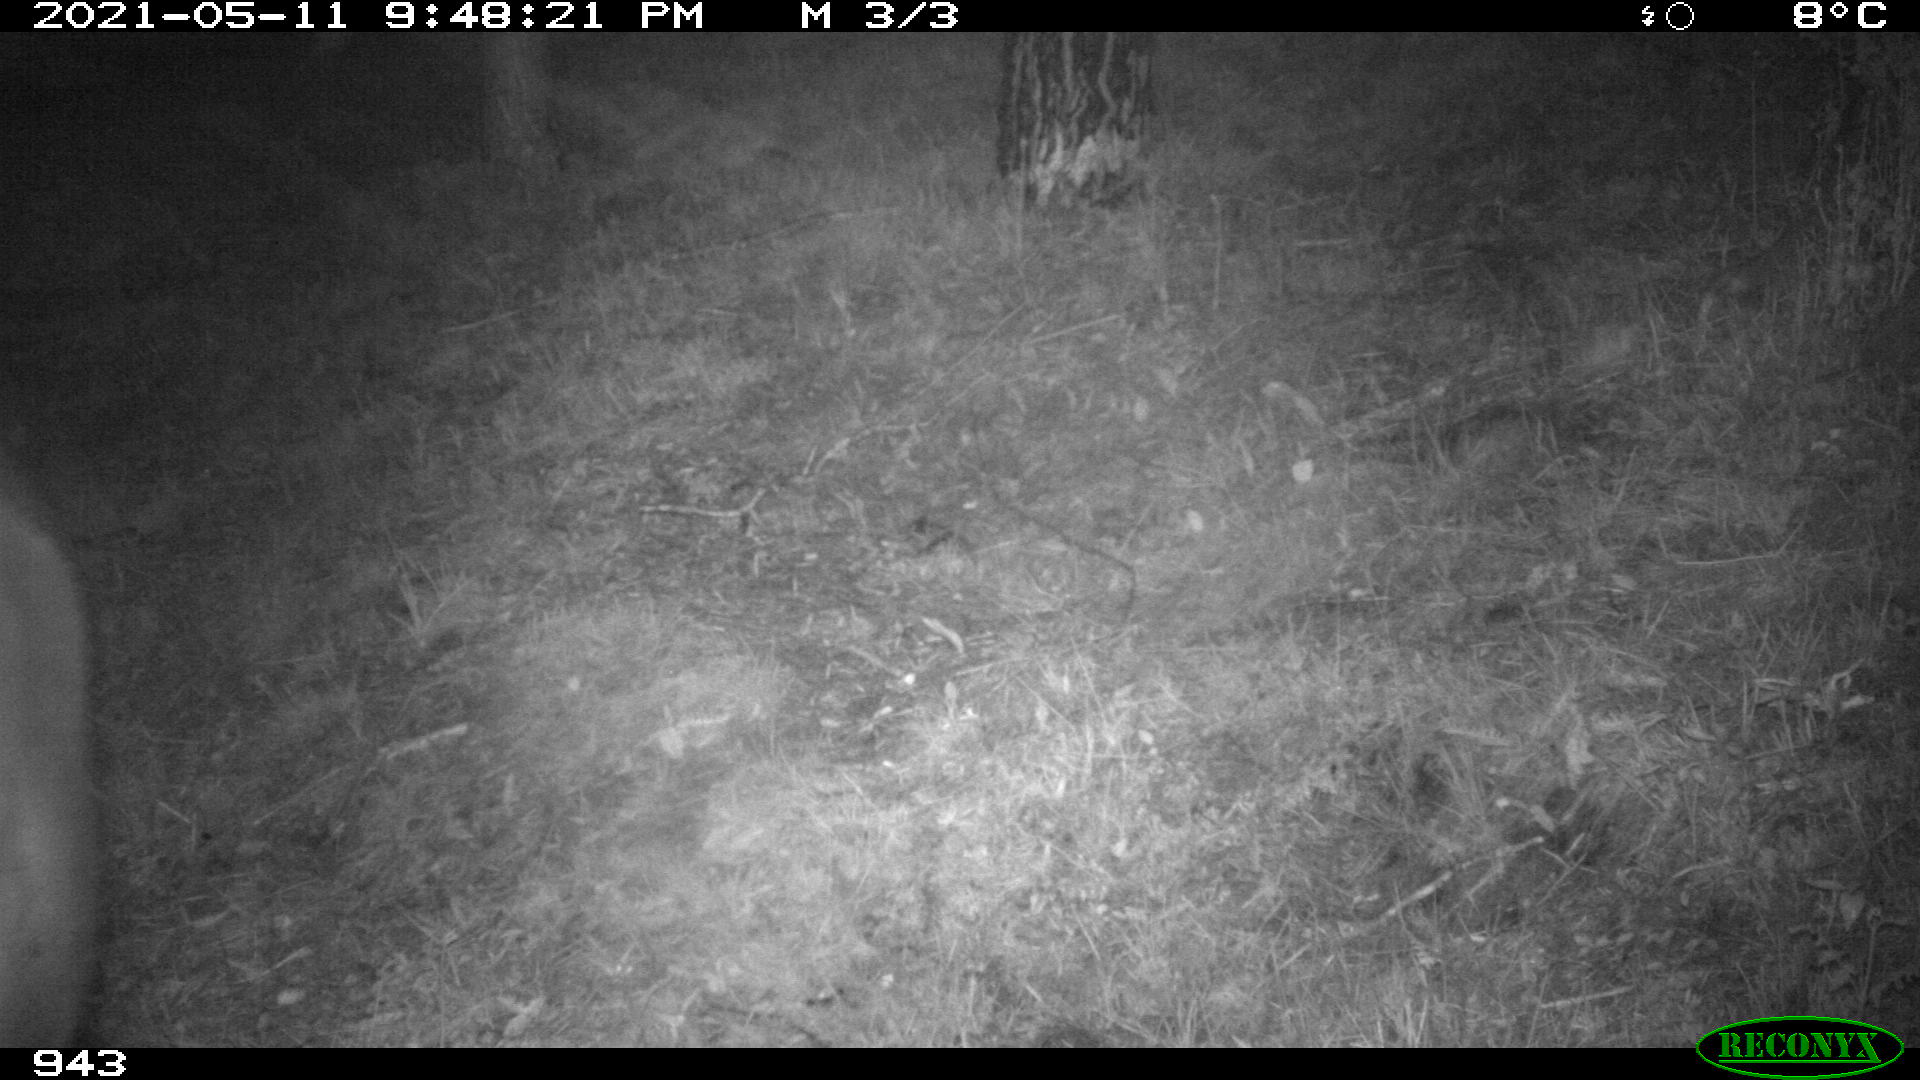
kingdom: Animalia
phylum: Chordata
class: Mammalia
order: Perissodactyla
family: Equidae
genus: Equus
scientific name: Equus caballus
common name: Horse
